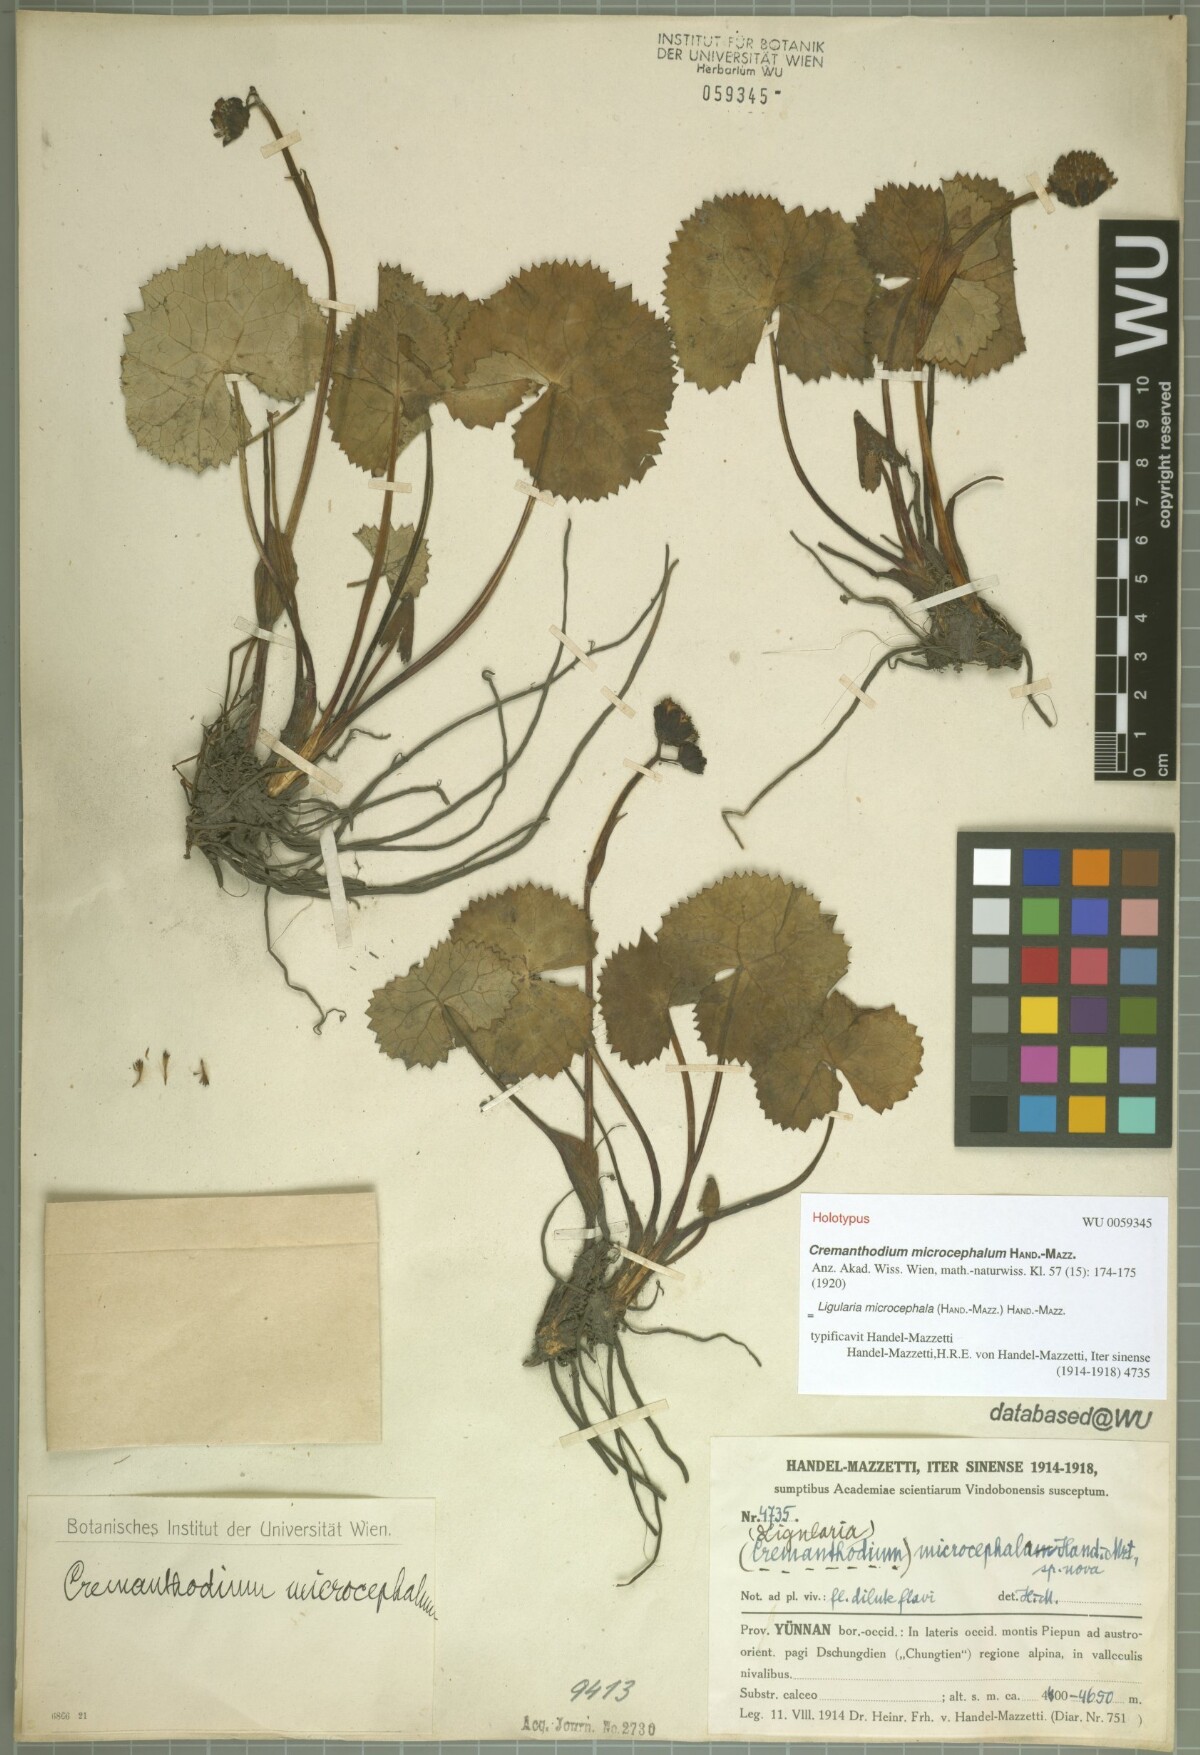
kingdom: Plantae
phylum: Tracheophyta
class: Magnoliopsida
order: Asterales
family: Asteraceae
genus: Ligularia
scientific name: Ligularia microcephala
